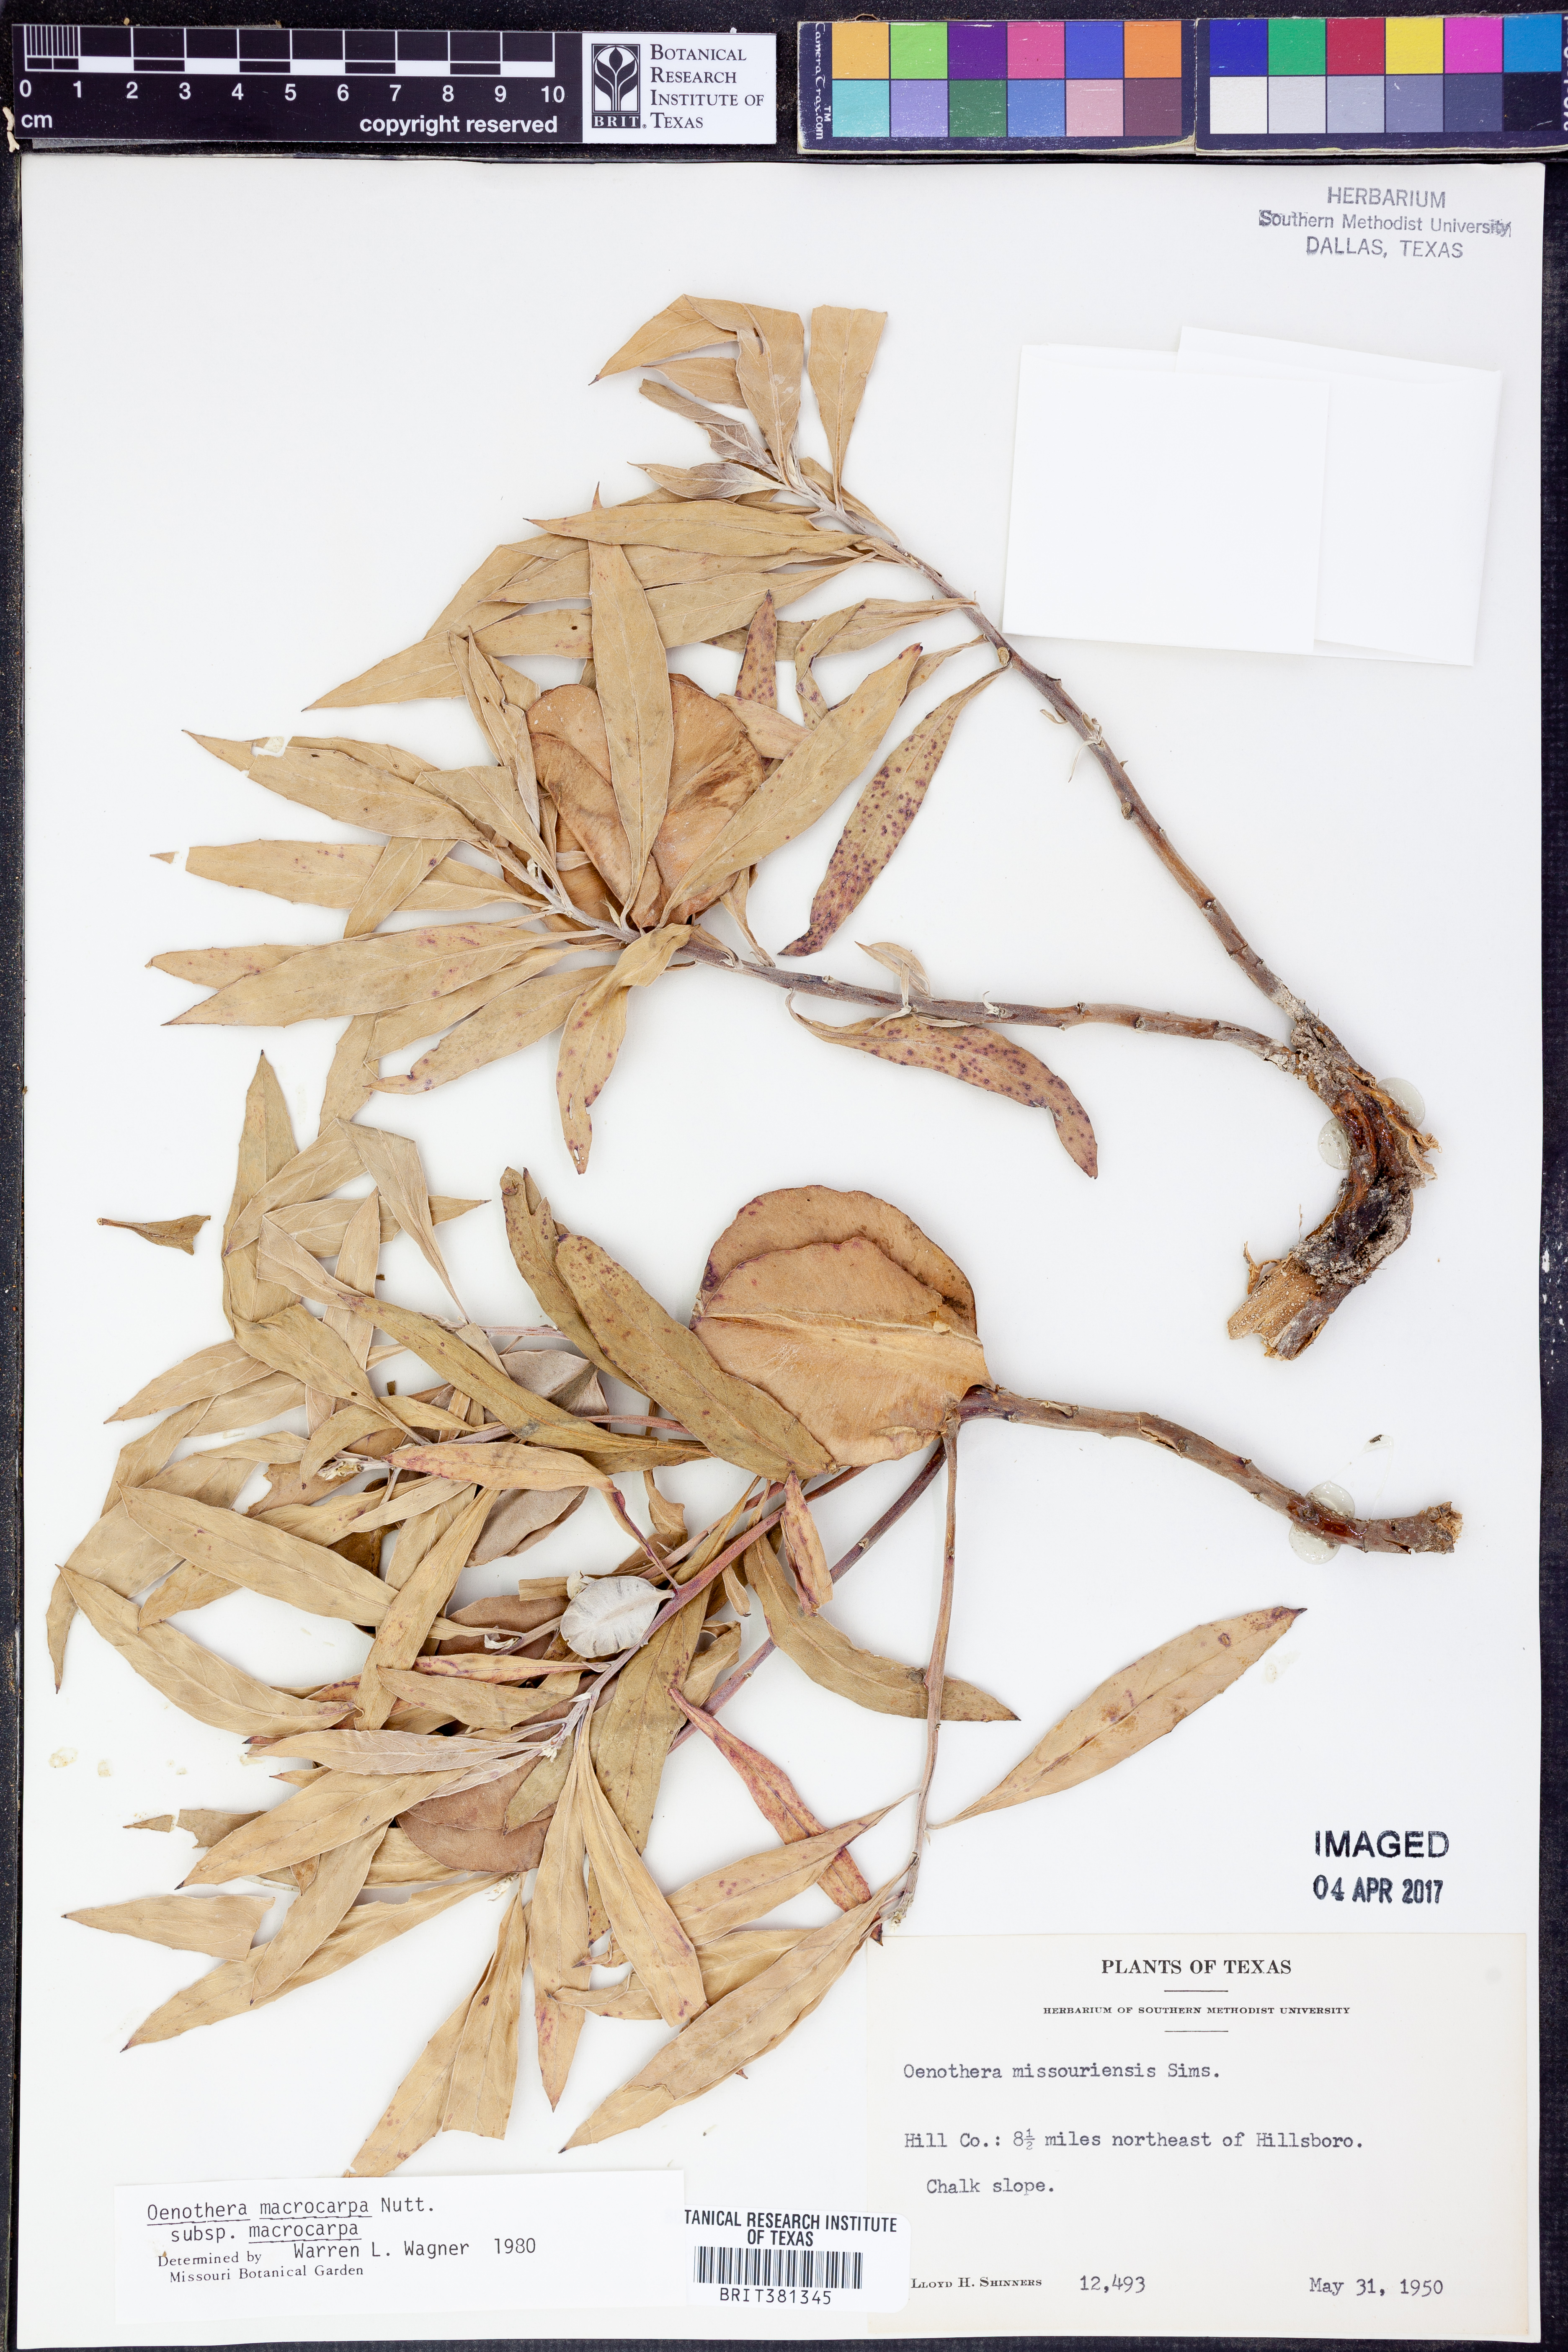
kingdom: Plantae
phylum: Tracheophyta
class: Magnoliopsida
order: Myrtales
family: Onagraceae
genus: Oenothera
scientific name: Oenothera macrocarpa
